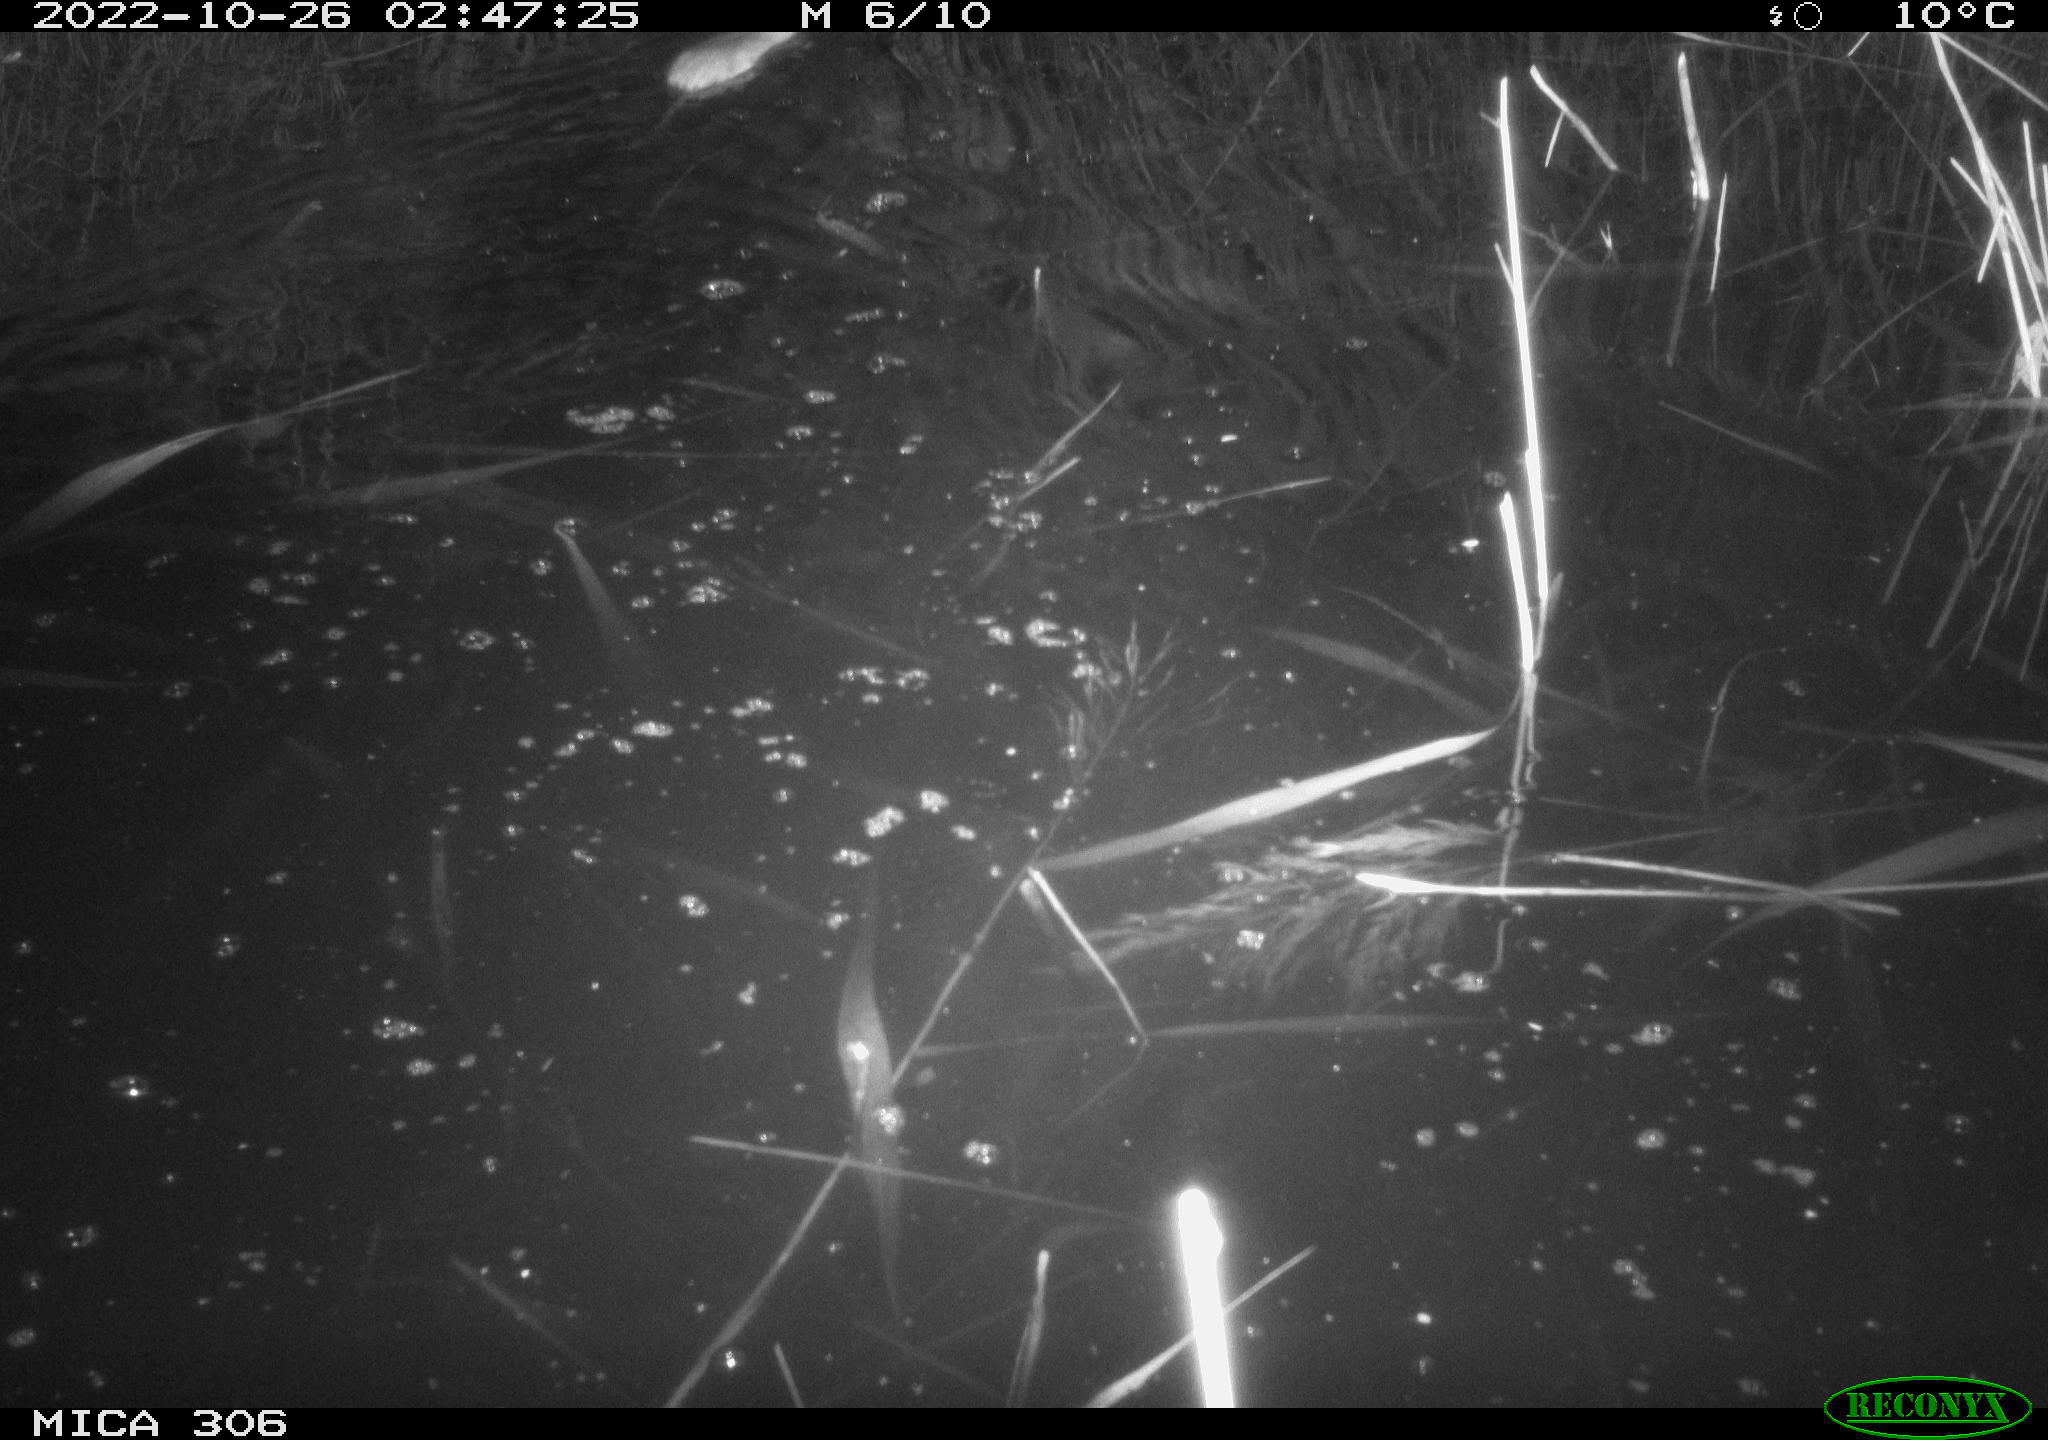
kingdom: Animalia
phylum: Chordata
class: Mammalia
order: Rodentia
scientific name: Rodentia
